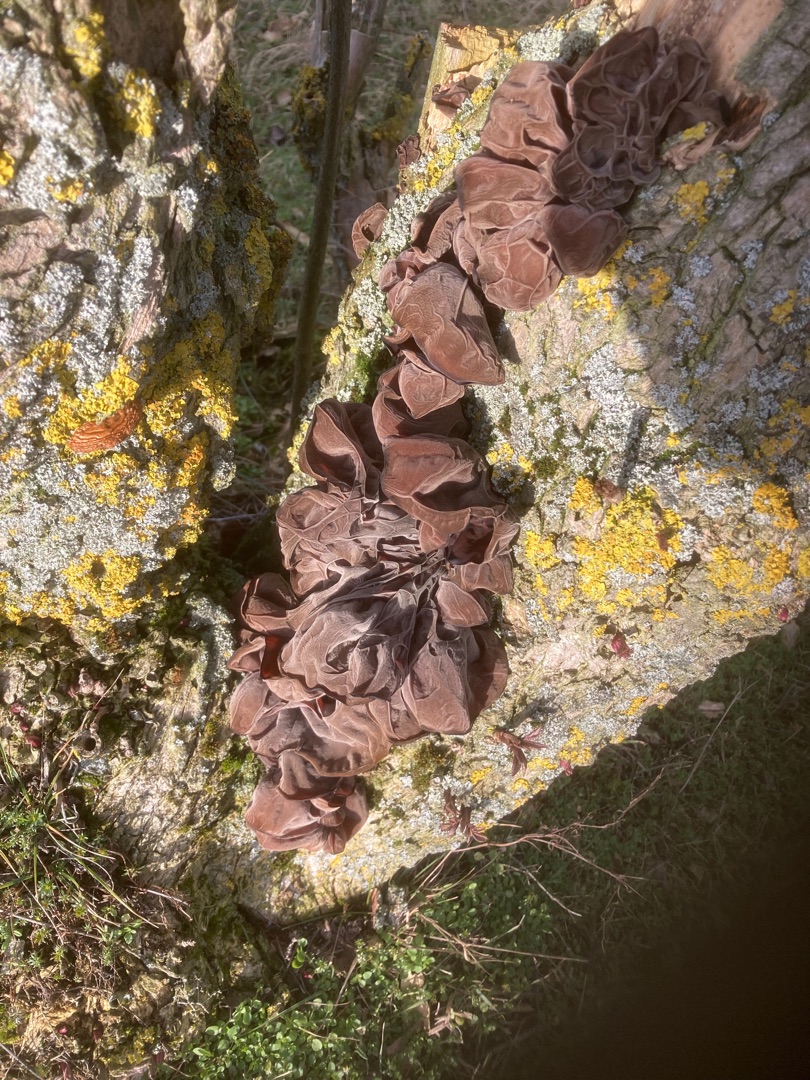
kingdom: Fungi
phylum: Basidiomycota
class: Agaricomycetes
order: Auriculariales
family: Auriculariaceae
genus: Auricularia
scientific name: Auricularia auricula-judae
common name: Almindelig judasøre
